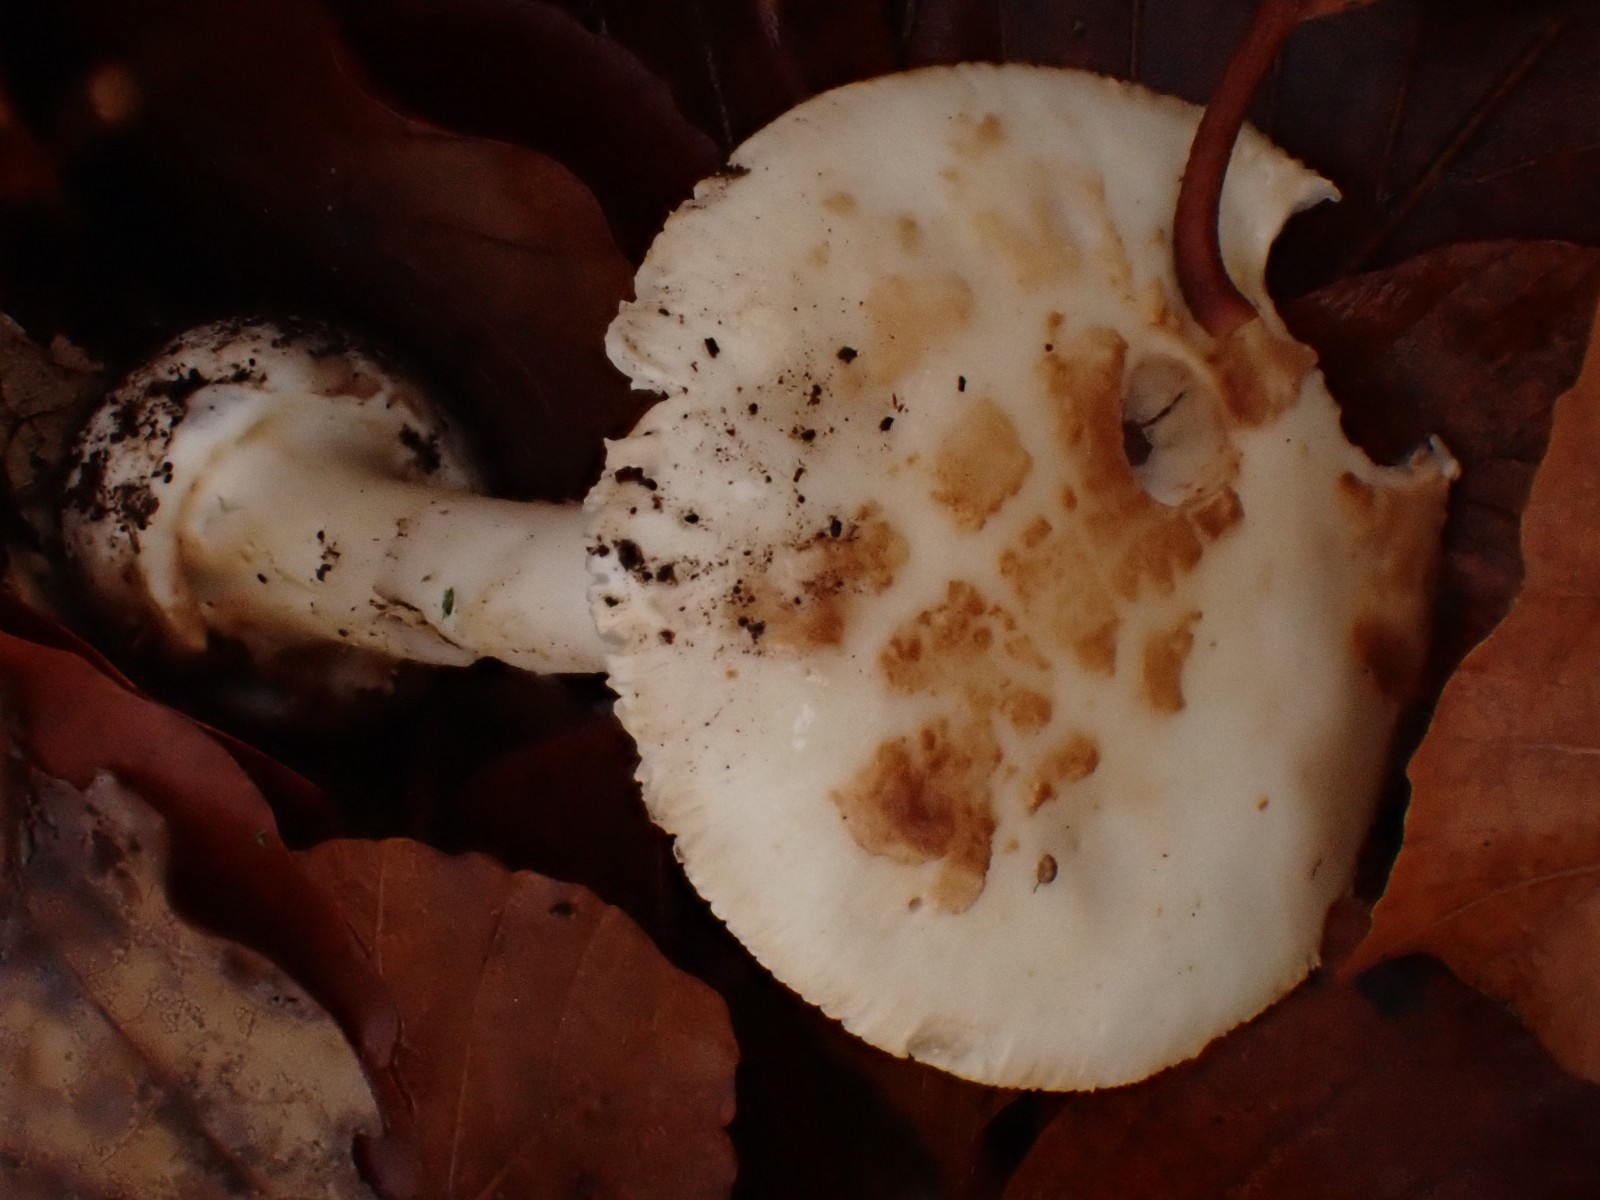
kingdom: Fungi
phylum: Basidiomycota
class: Agaricomycetes
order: Agaricales
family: Amanitaceae
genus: Amanita
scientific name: Amanita citrina
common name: kugleknoldet fluesvamp
